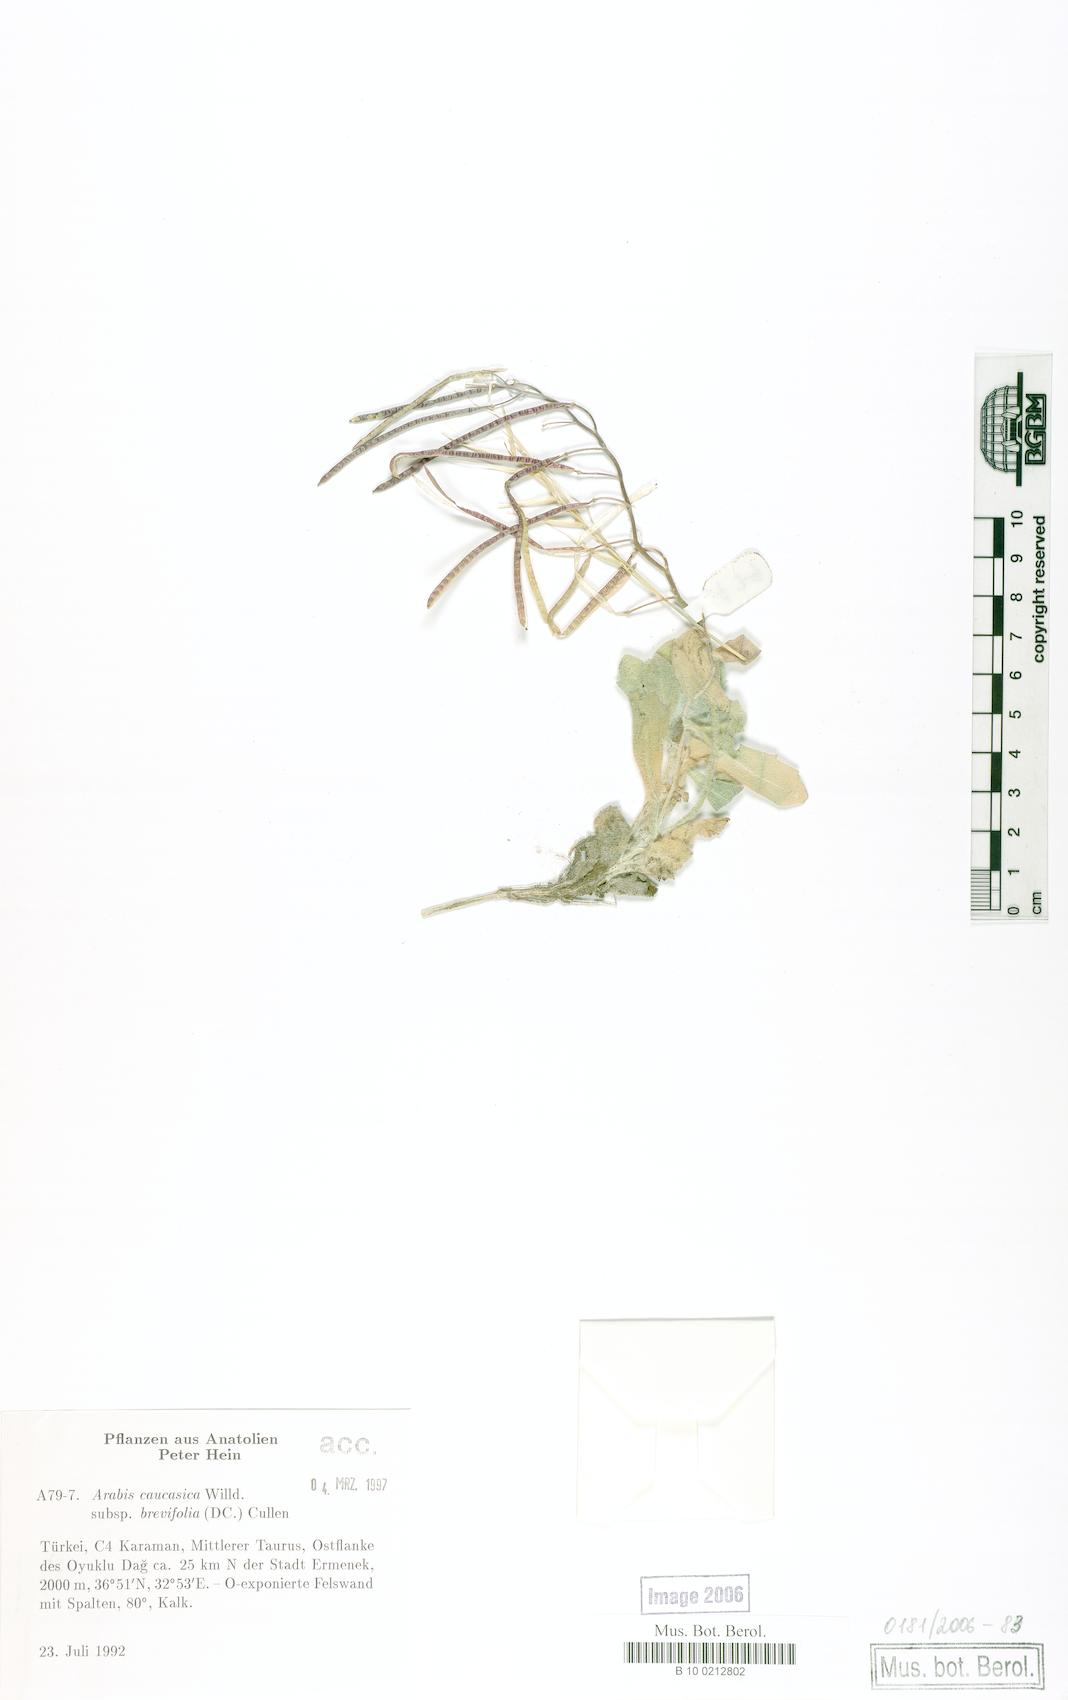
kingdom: Plantae
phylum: Tracheophyta
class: Magnoliopsida
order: Brassicales
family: Brassicaceae
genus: Arabis
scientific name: Arabis caucasica
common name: Gray rockcress
